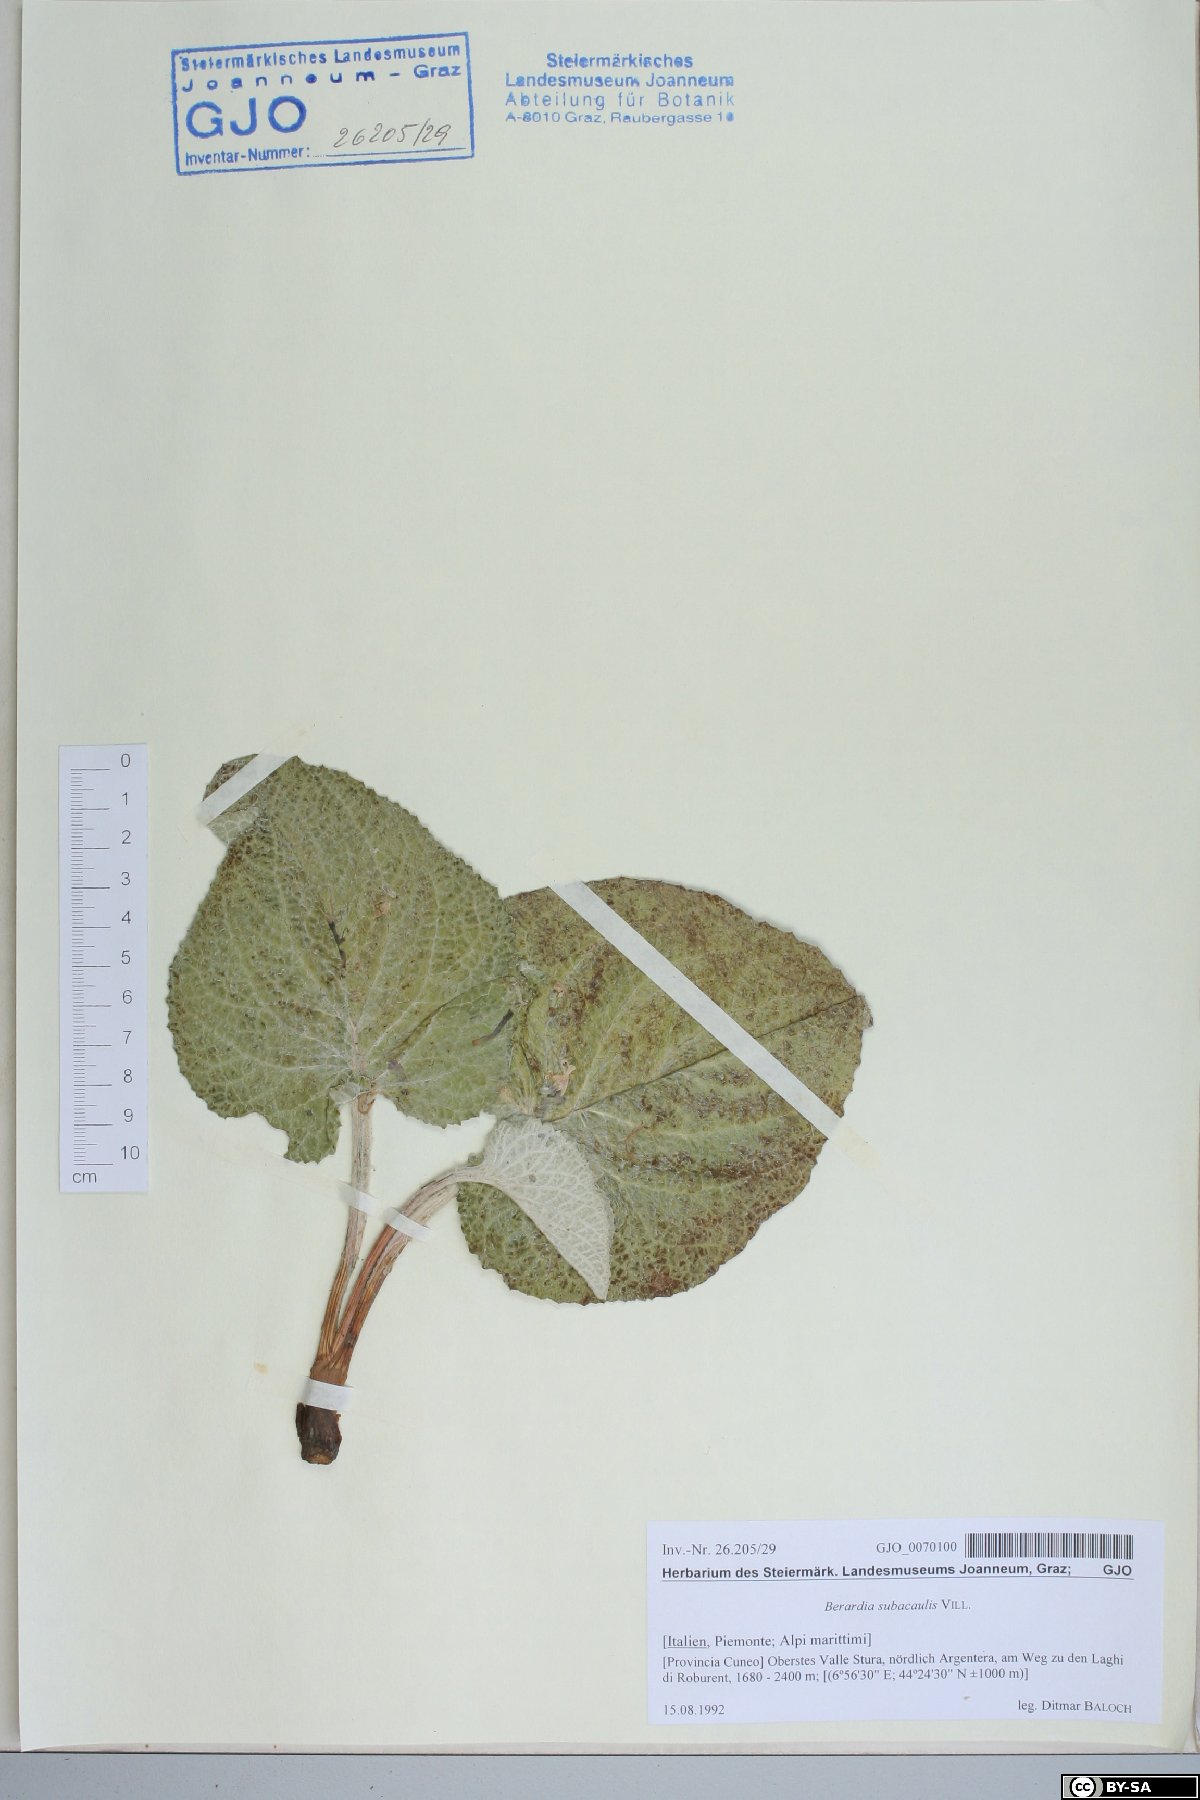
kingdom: Plantae
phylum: Tracheophyta
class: Magnoliopsida
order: Asterales
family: Asteraceae
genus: Berardia
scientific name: Berardia lanuginosa
